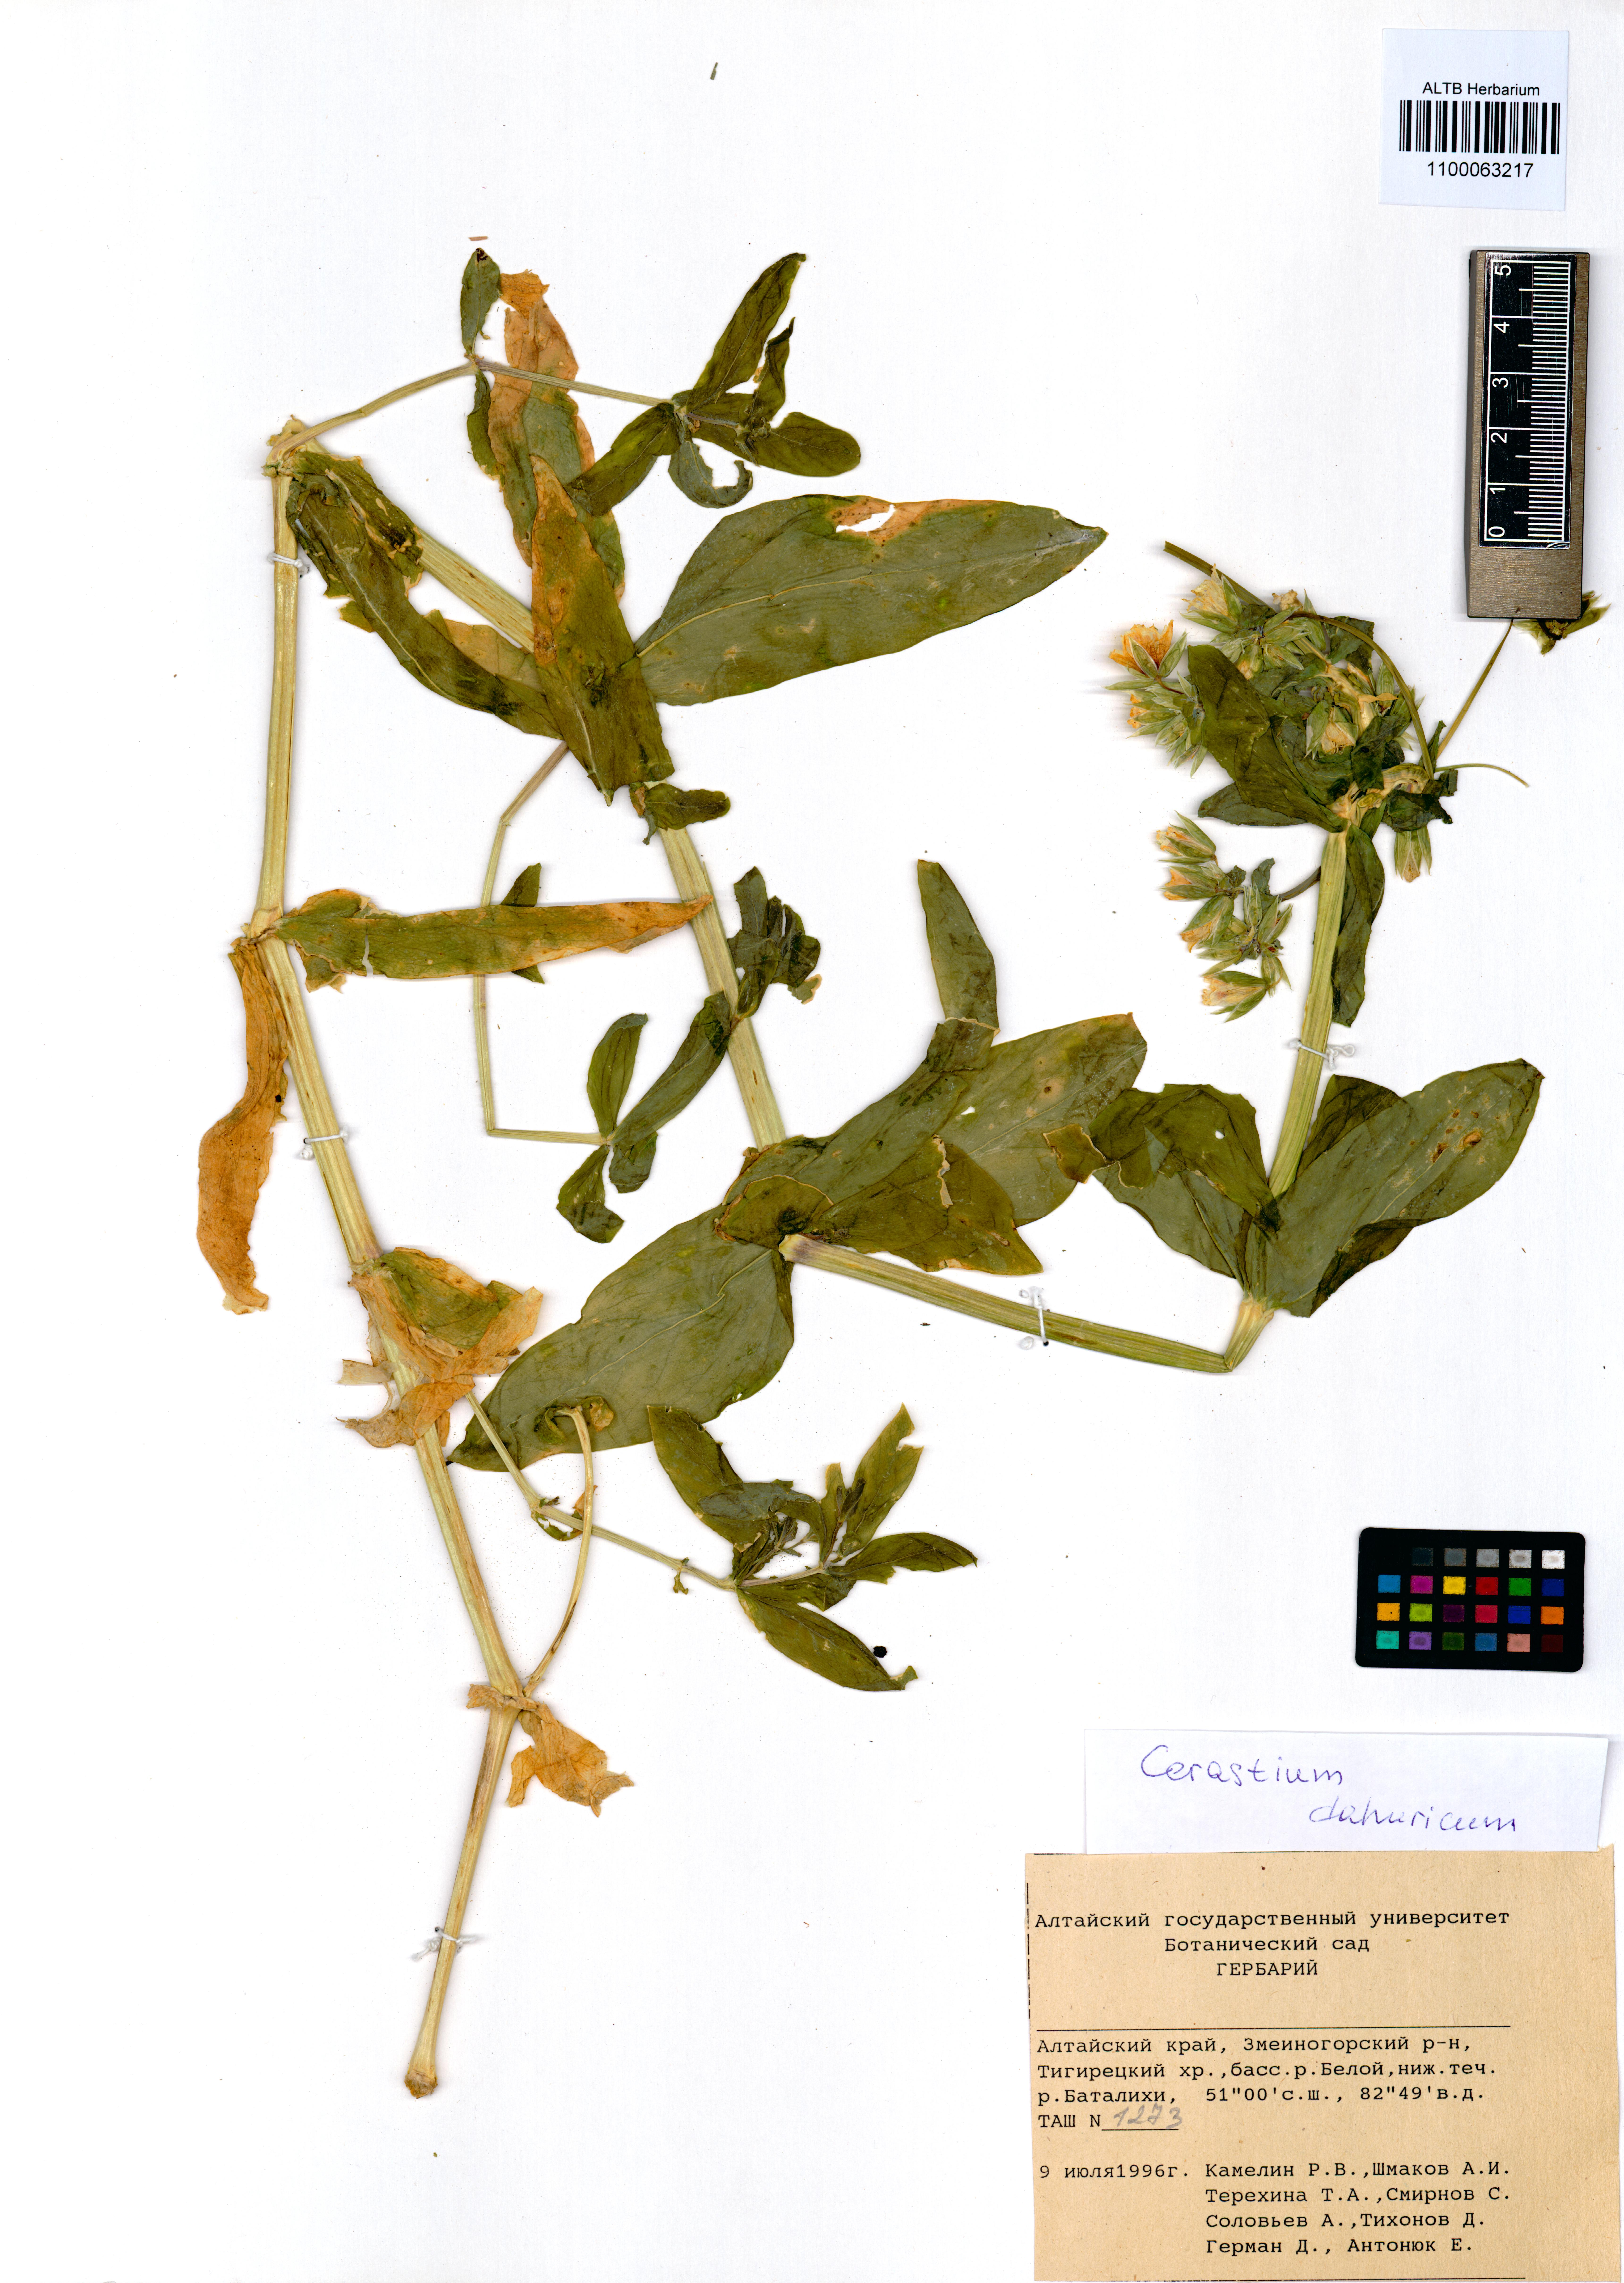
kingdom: Plantae
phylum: Tracheophyta
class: Magnoliopsida
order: Caryophyllales
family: Caryophyllaceae
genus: Dichodon
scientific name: Dichodon davuricum
